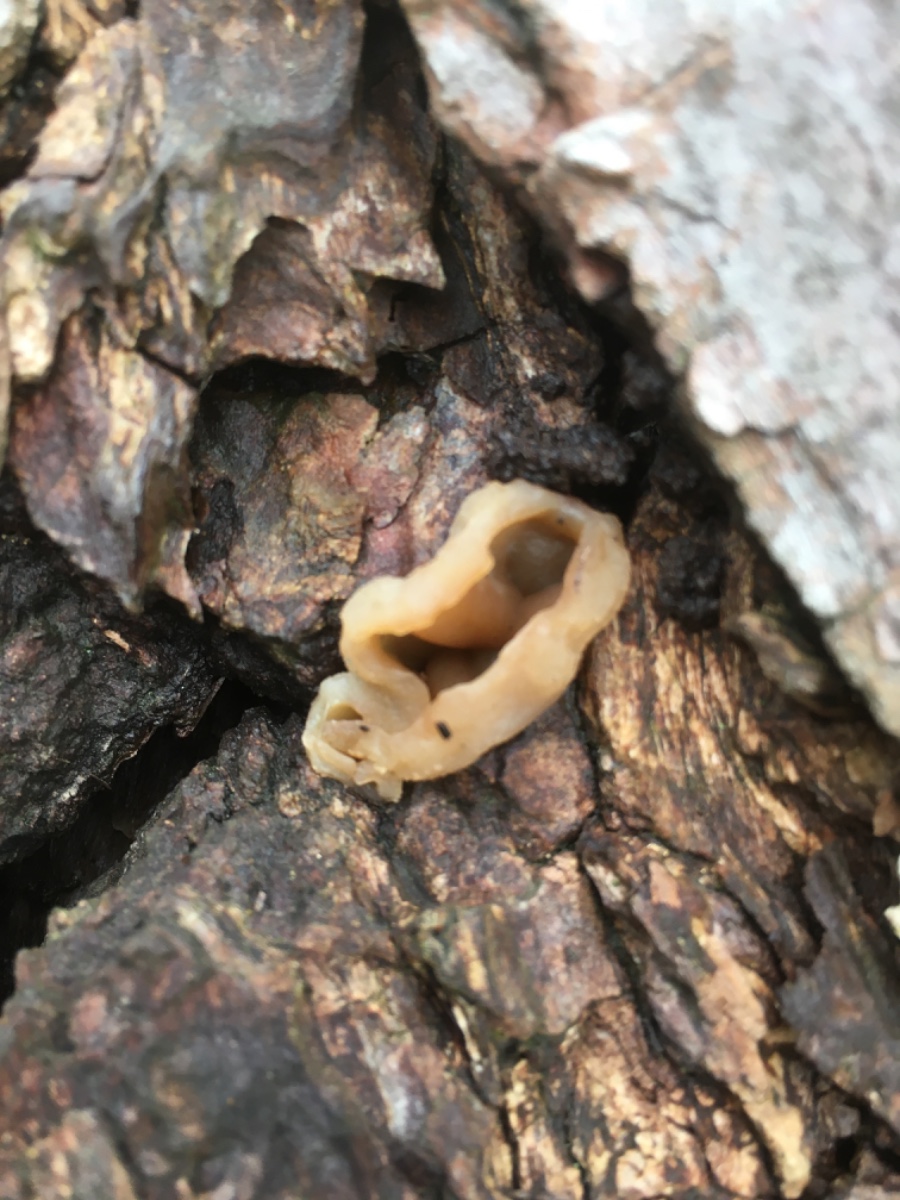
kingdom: Fungi
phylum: Ascomycota
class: Pezizomycetes
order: Pezizales
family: Pezizaceae
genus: Peziza
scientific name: Peziza varia
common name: Ved-bægersvamp
